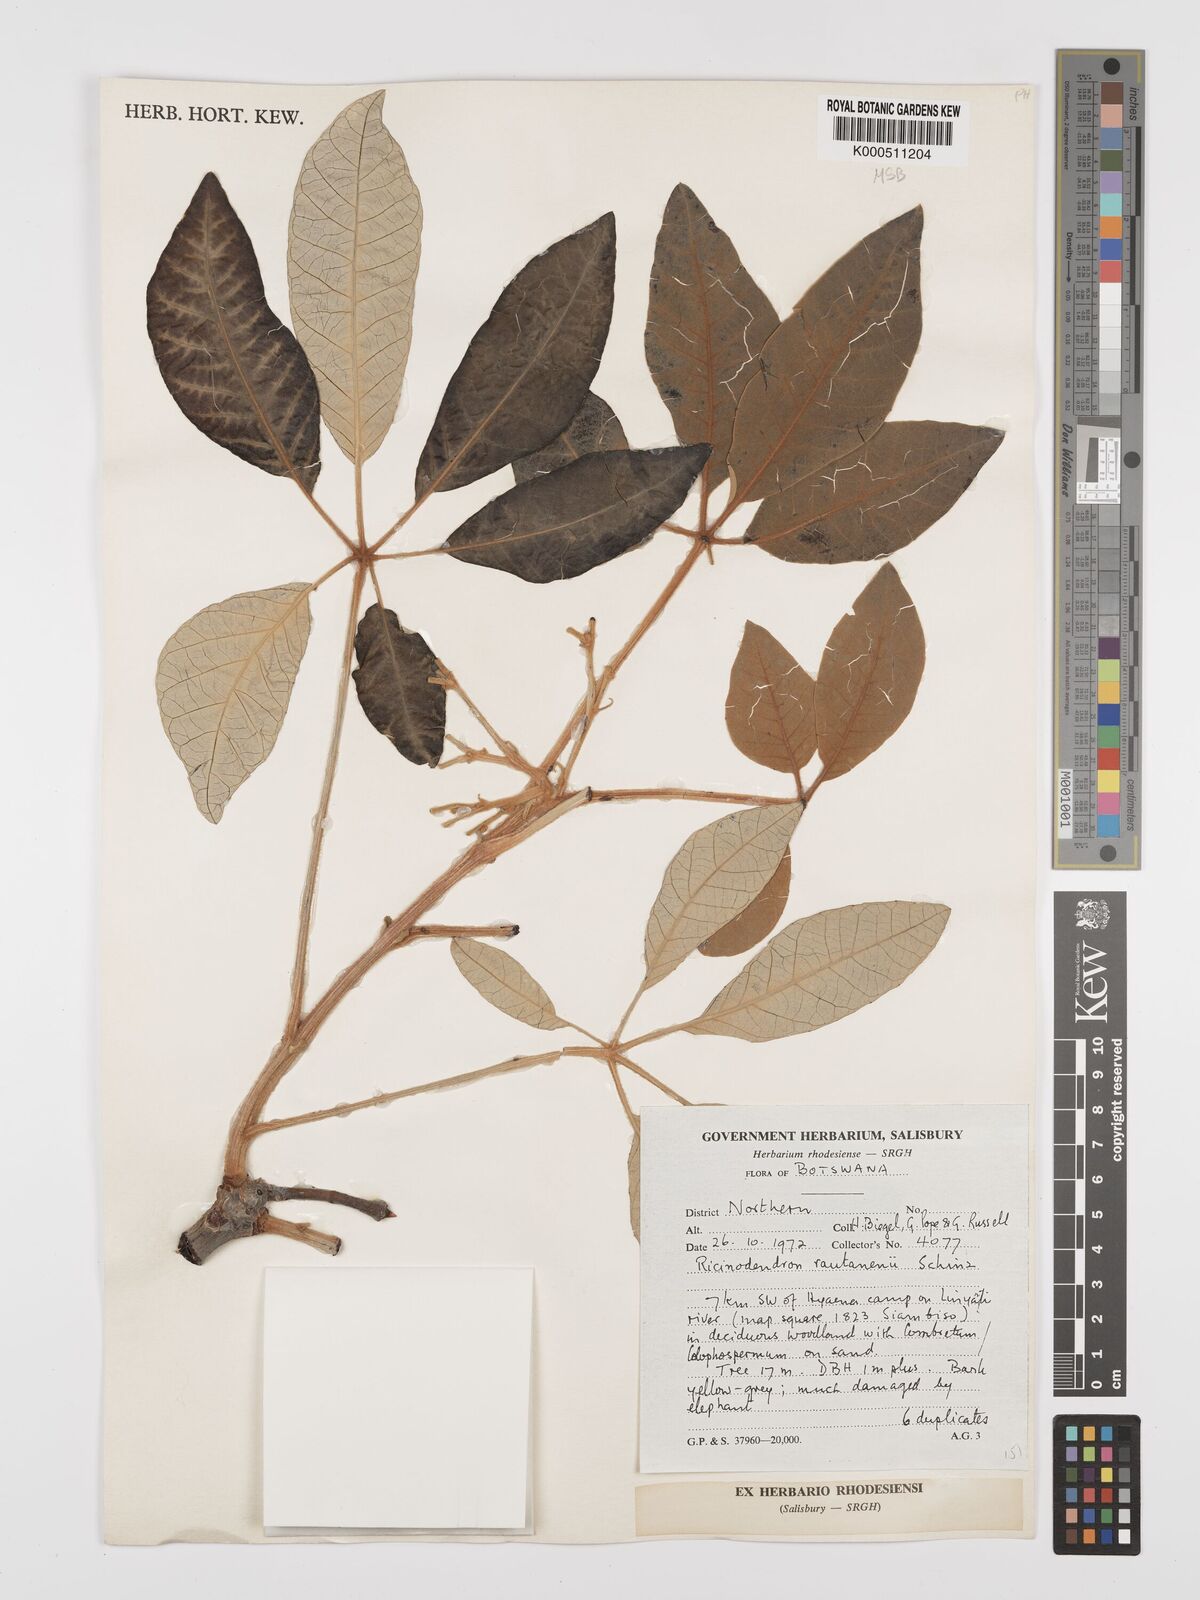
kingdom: Plantae
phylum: Tracheophyta
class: Magnoliopsida
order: Malpighiales
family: Euphorbiaceae
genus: Schinziophyton
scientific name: Schinziophyton rautanenii
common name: Manketti
